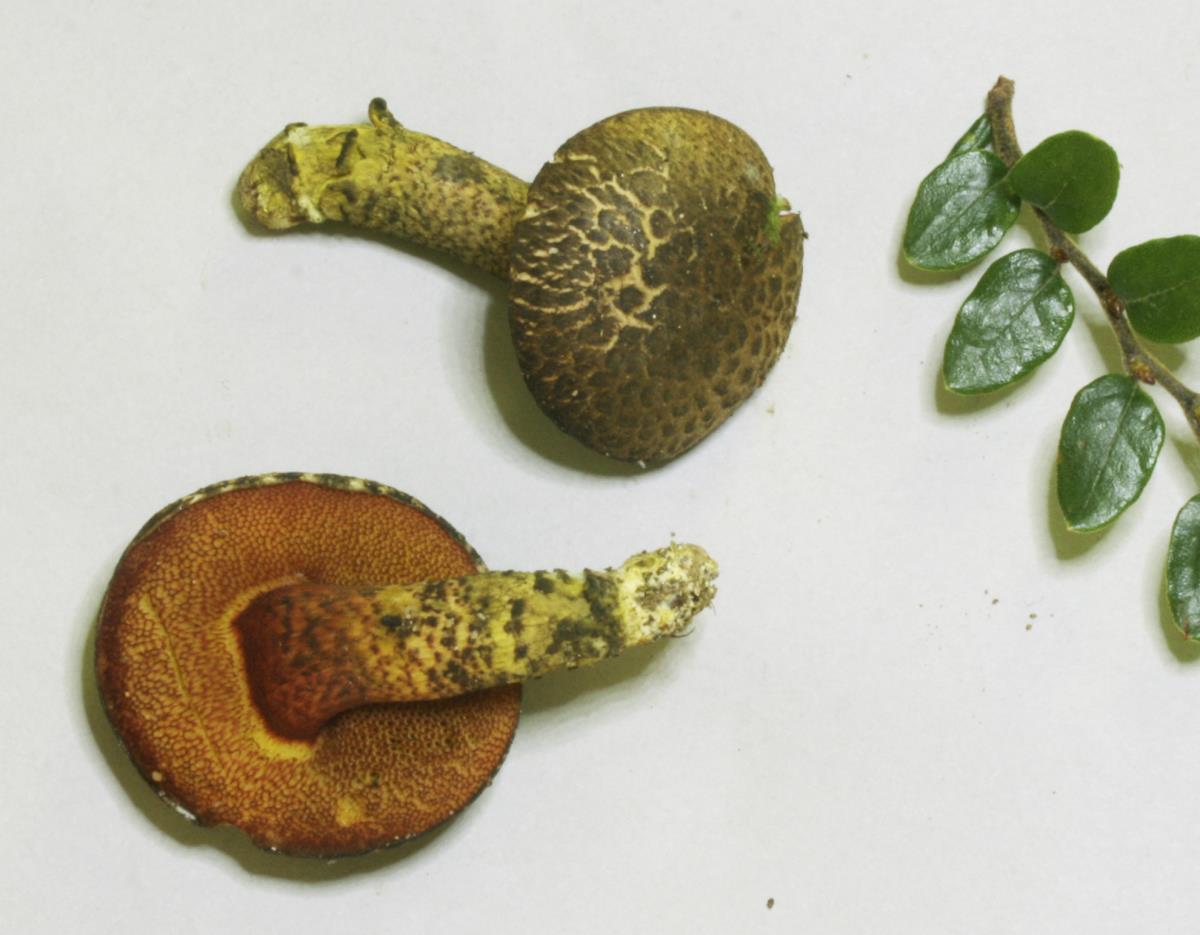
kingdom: Fungi
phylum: Basidiomycota
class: Agaricomycetes
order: Boletales
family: Boletaceae
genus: Amoenoboletus
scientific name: Amoenoboletus mcrobbii
